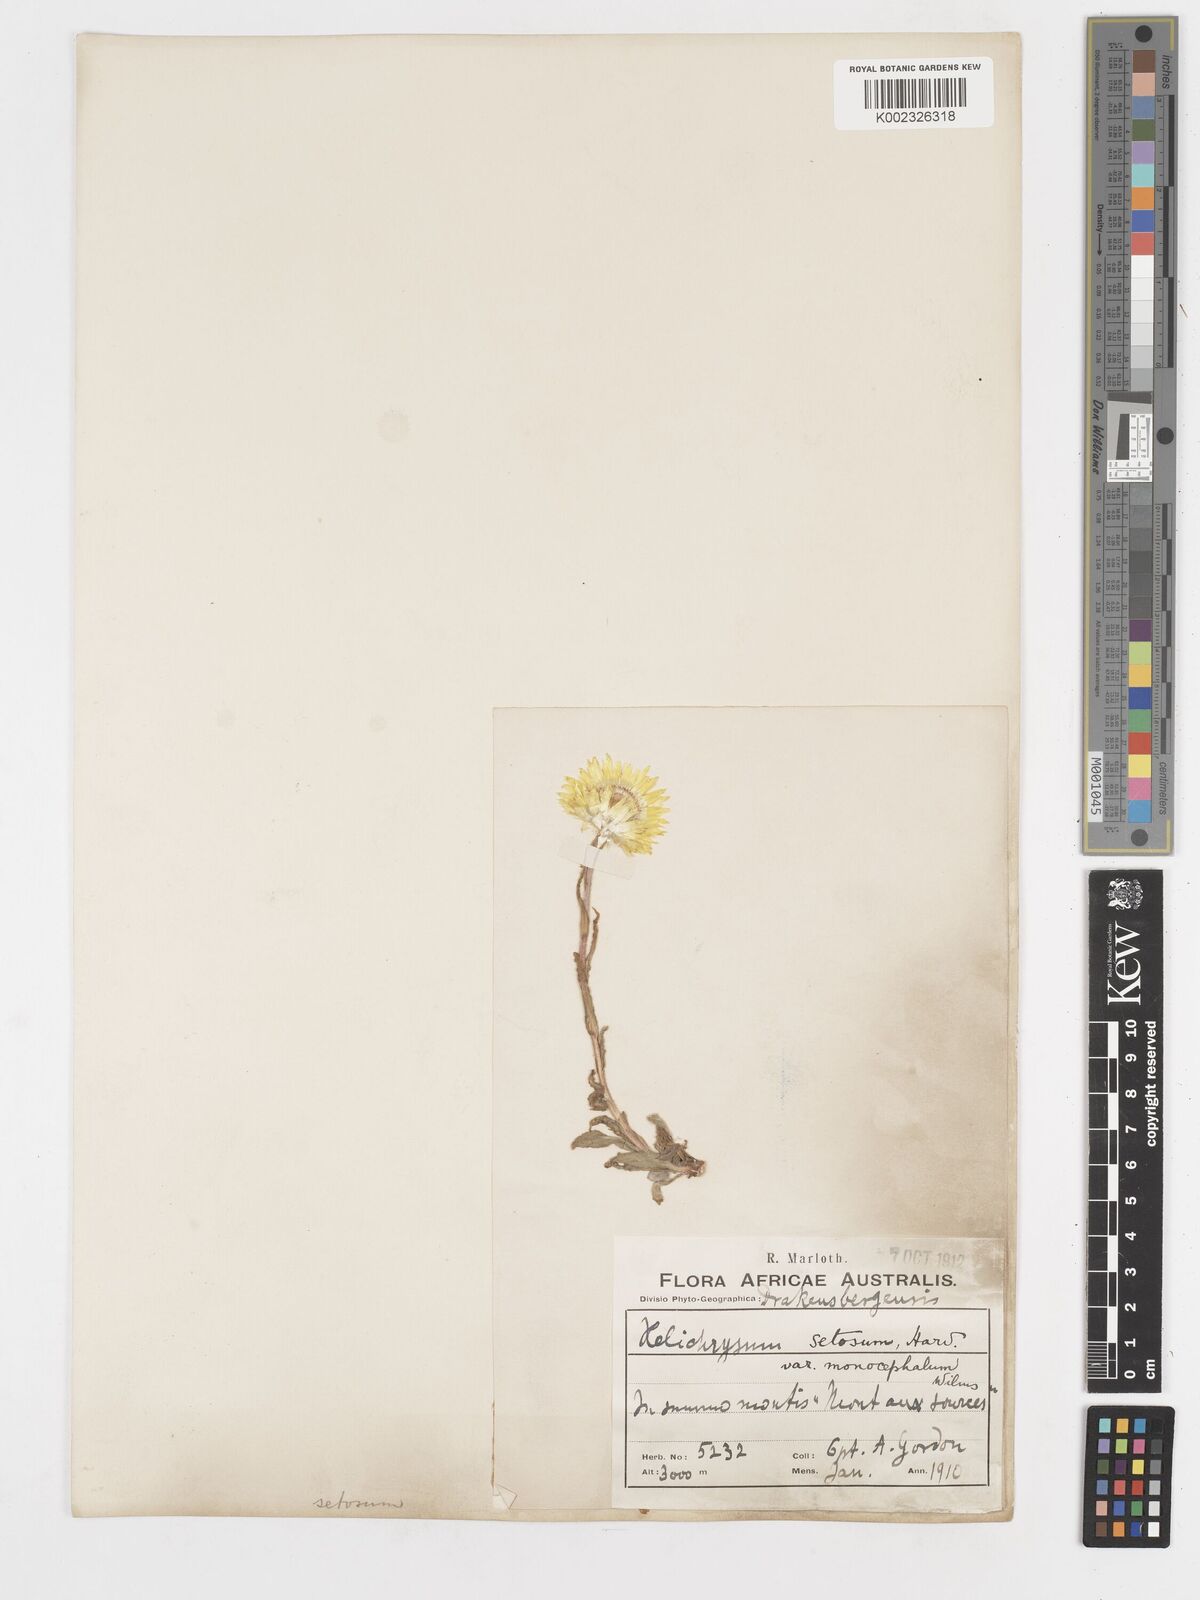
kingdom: Plantae
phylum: Tracheophyta
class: Magnoliopsida
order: Asterales
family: Asteraceae
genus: Helichrysum
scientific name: Helichrysum aureum
